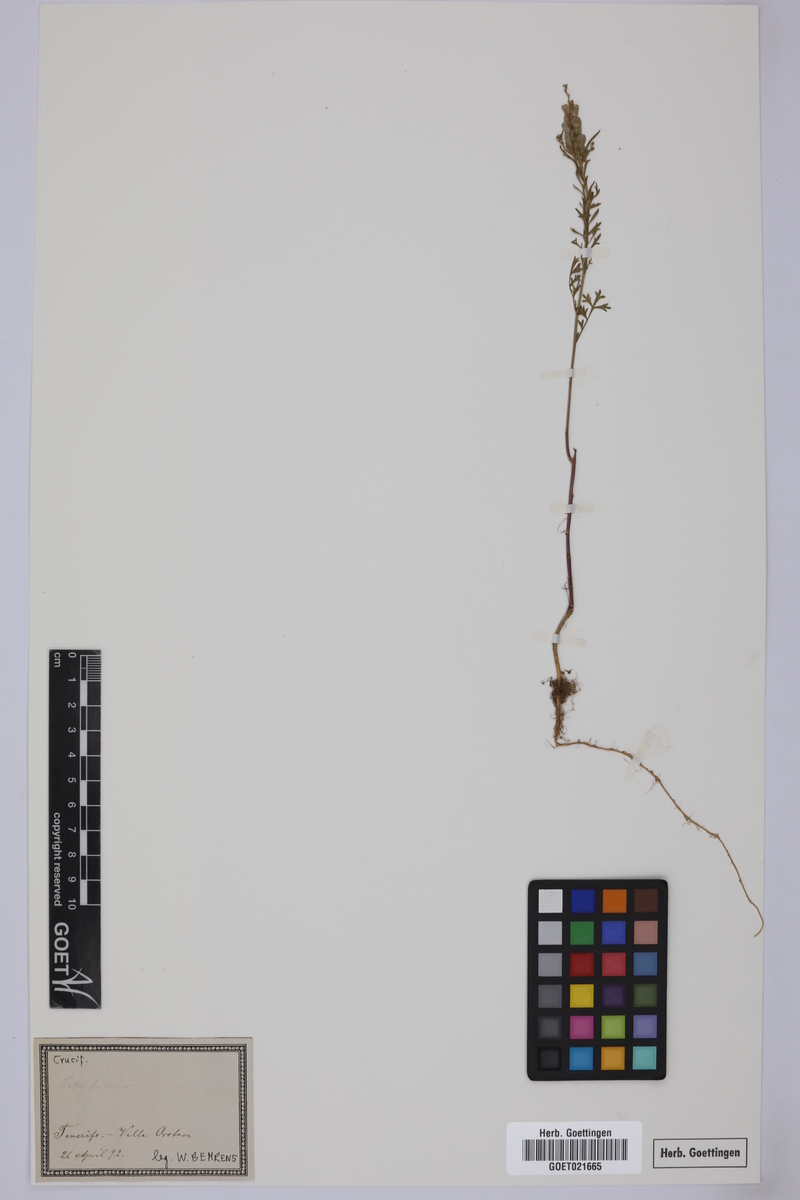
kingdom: Plantae
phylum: Tracheophyta
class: Magnoliopsida
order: Brassicales
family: Brassicaceae
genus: Lepidium
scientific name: Lepidium
